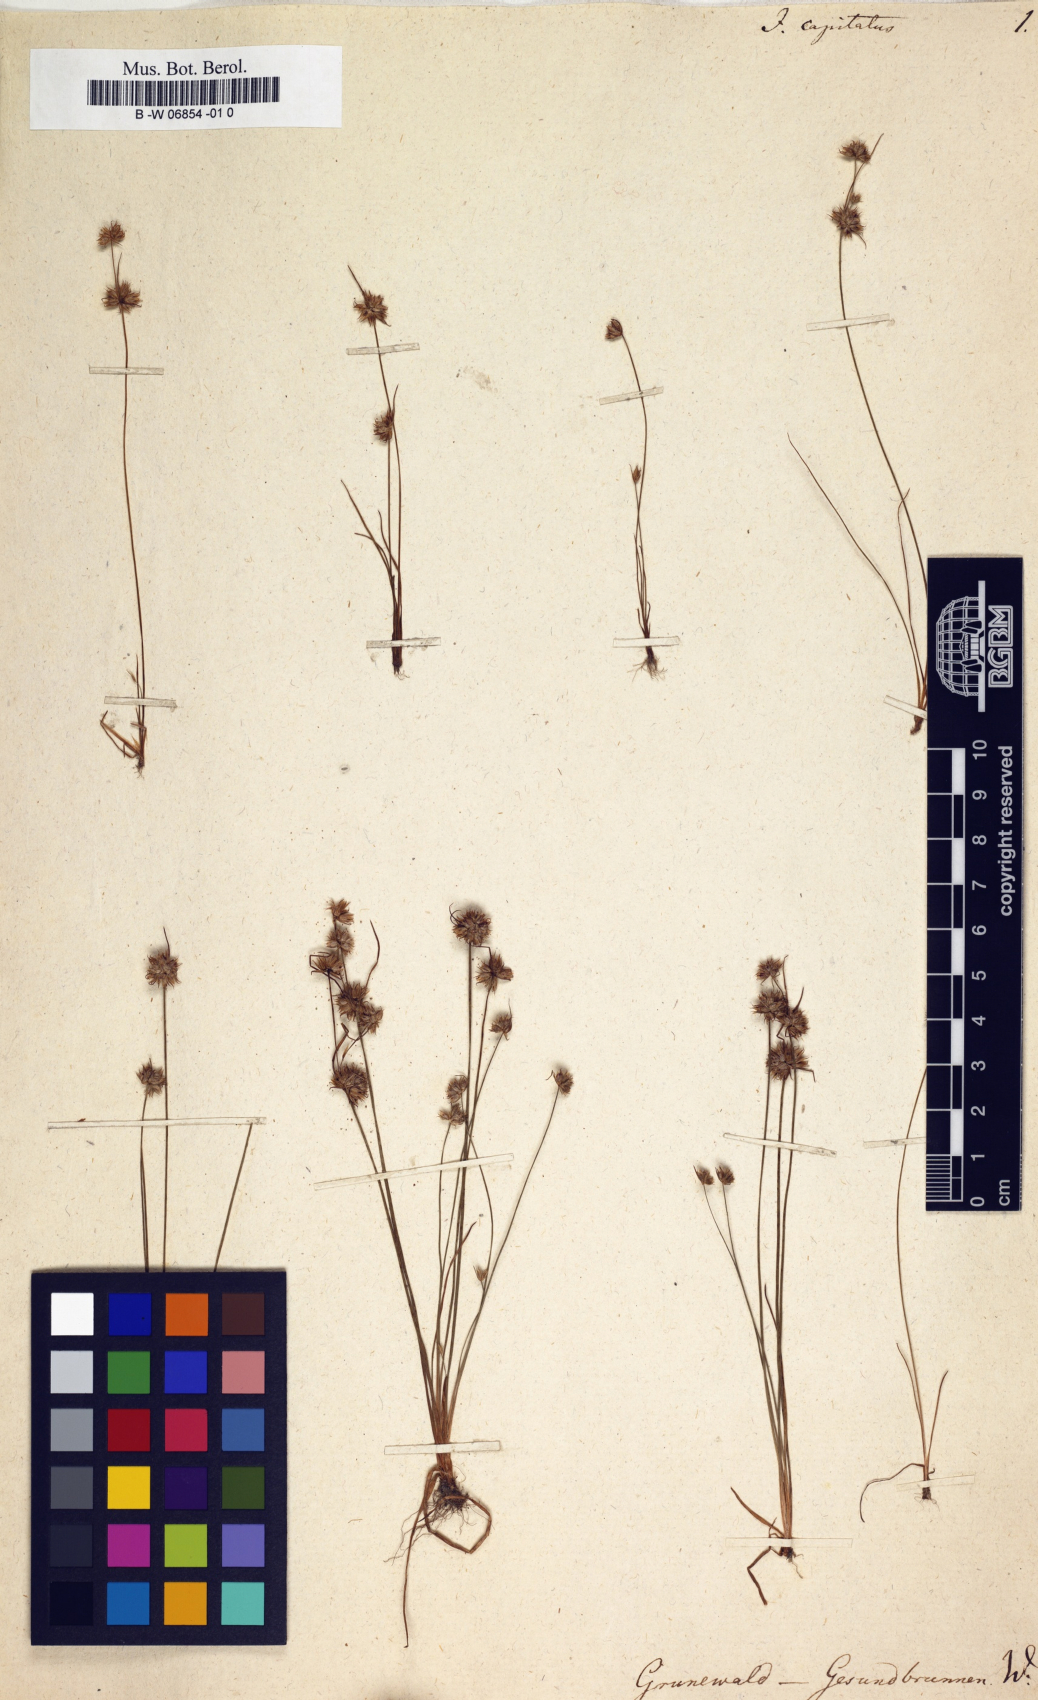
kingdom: Plantae
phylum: Tracheophyta
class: Liliopsida
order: Poales
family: Juncaceae
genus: Juncus
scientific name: Juncus capitatus
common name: Dwarf rush
